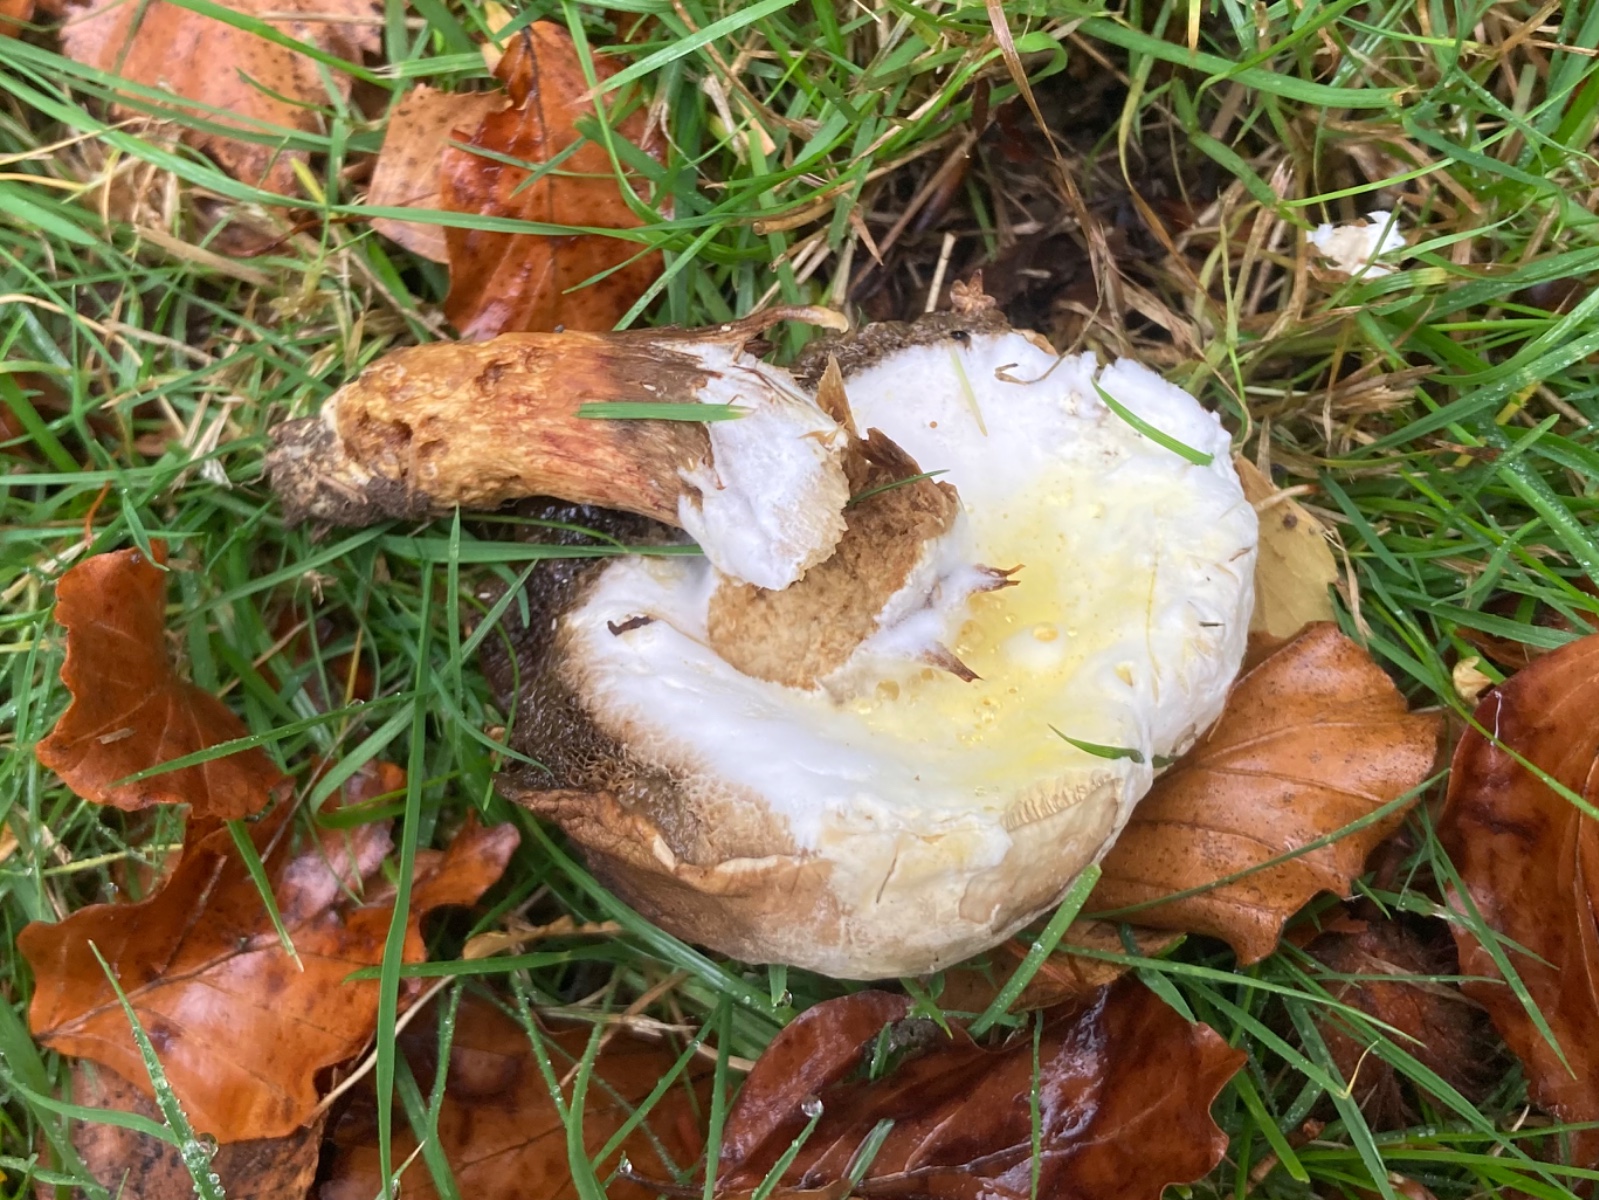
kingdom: Fungi
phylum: Ascomycota
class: Sordariomycetes
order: Hypocreales
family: Hypocreaceae
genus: Hypomyces
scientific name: Hypomyces microspermus
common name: dværgrørhat-snylteskorpe
